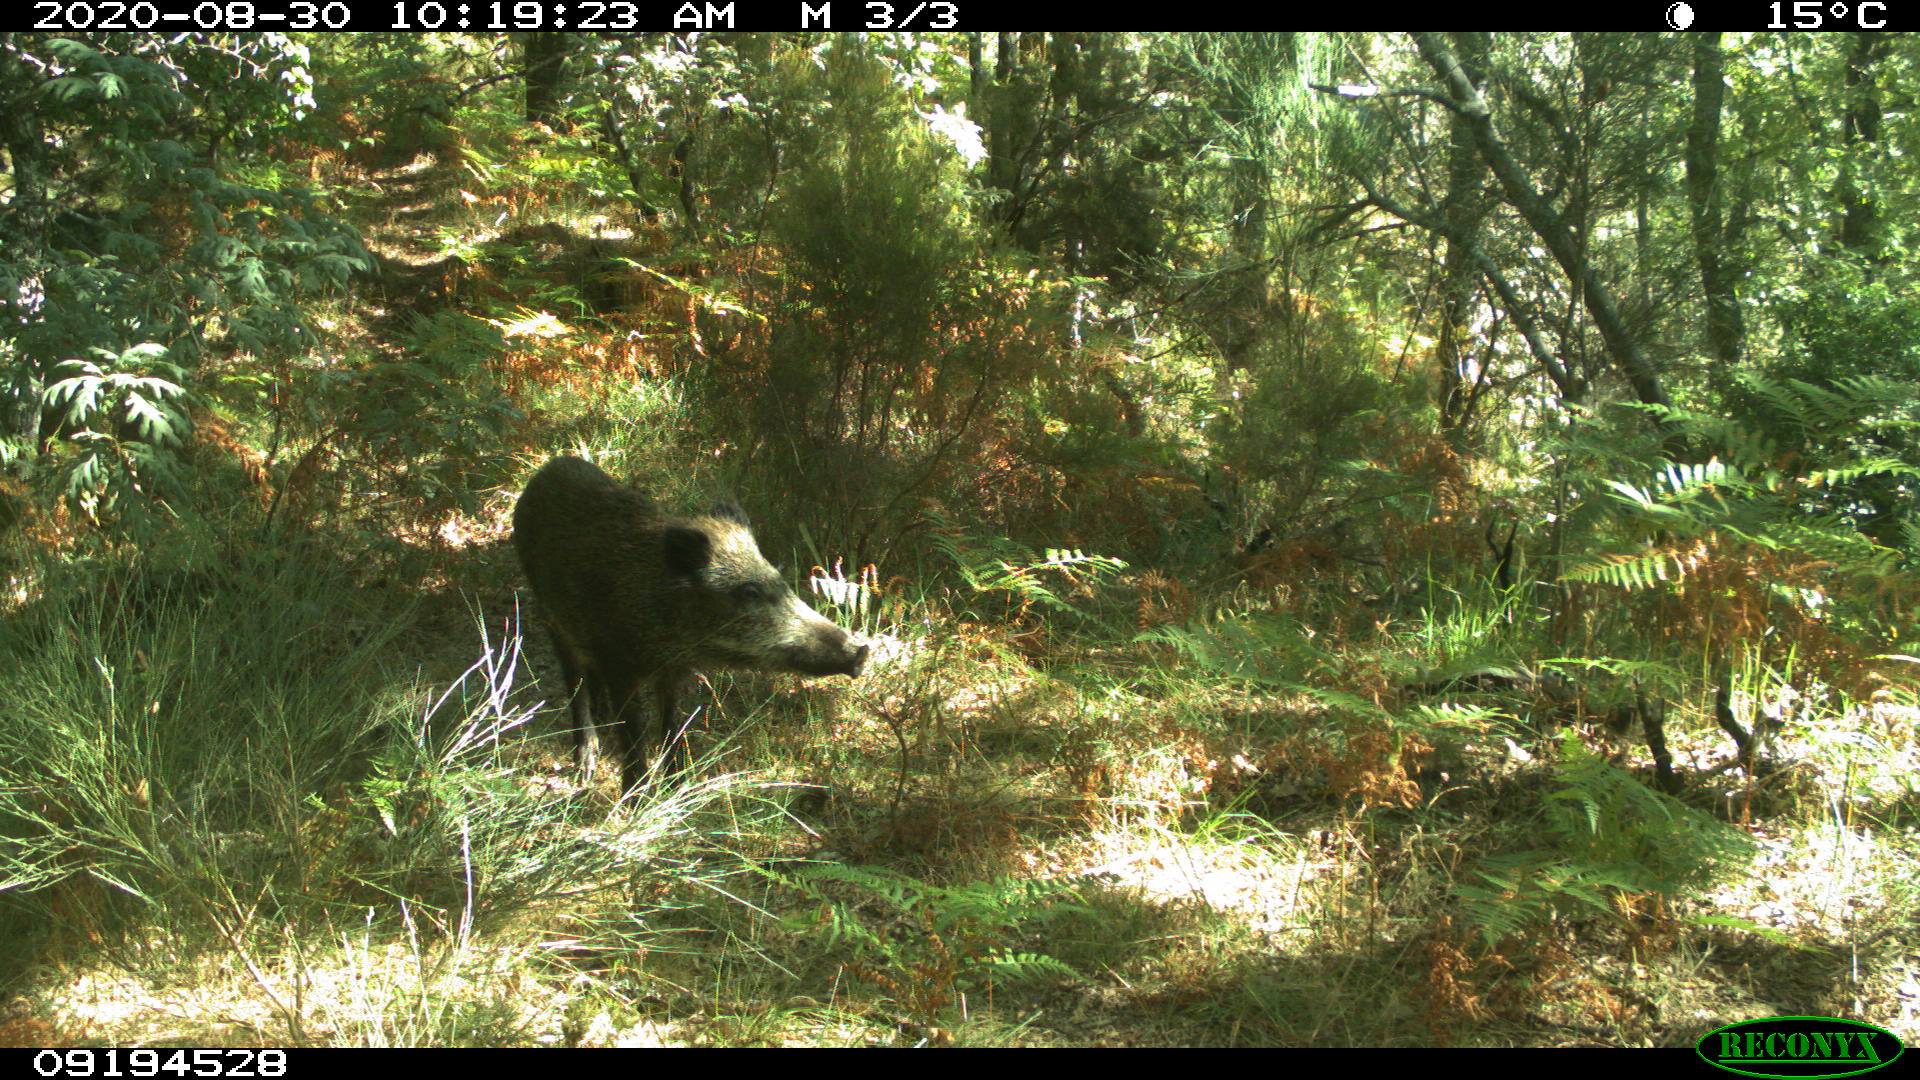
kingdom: Animalia
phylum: Chordata
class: Mammalia
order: Artiodactyla
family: Suidae
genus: Sus
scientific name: Sus scrofa
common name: Wild boar
